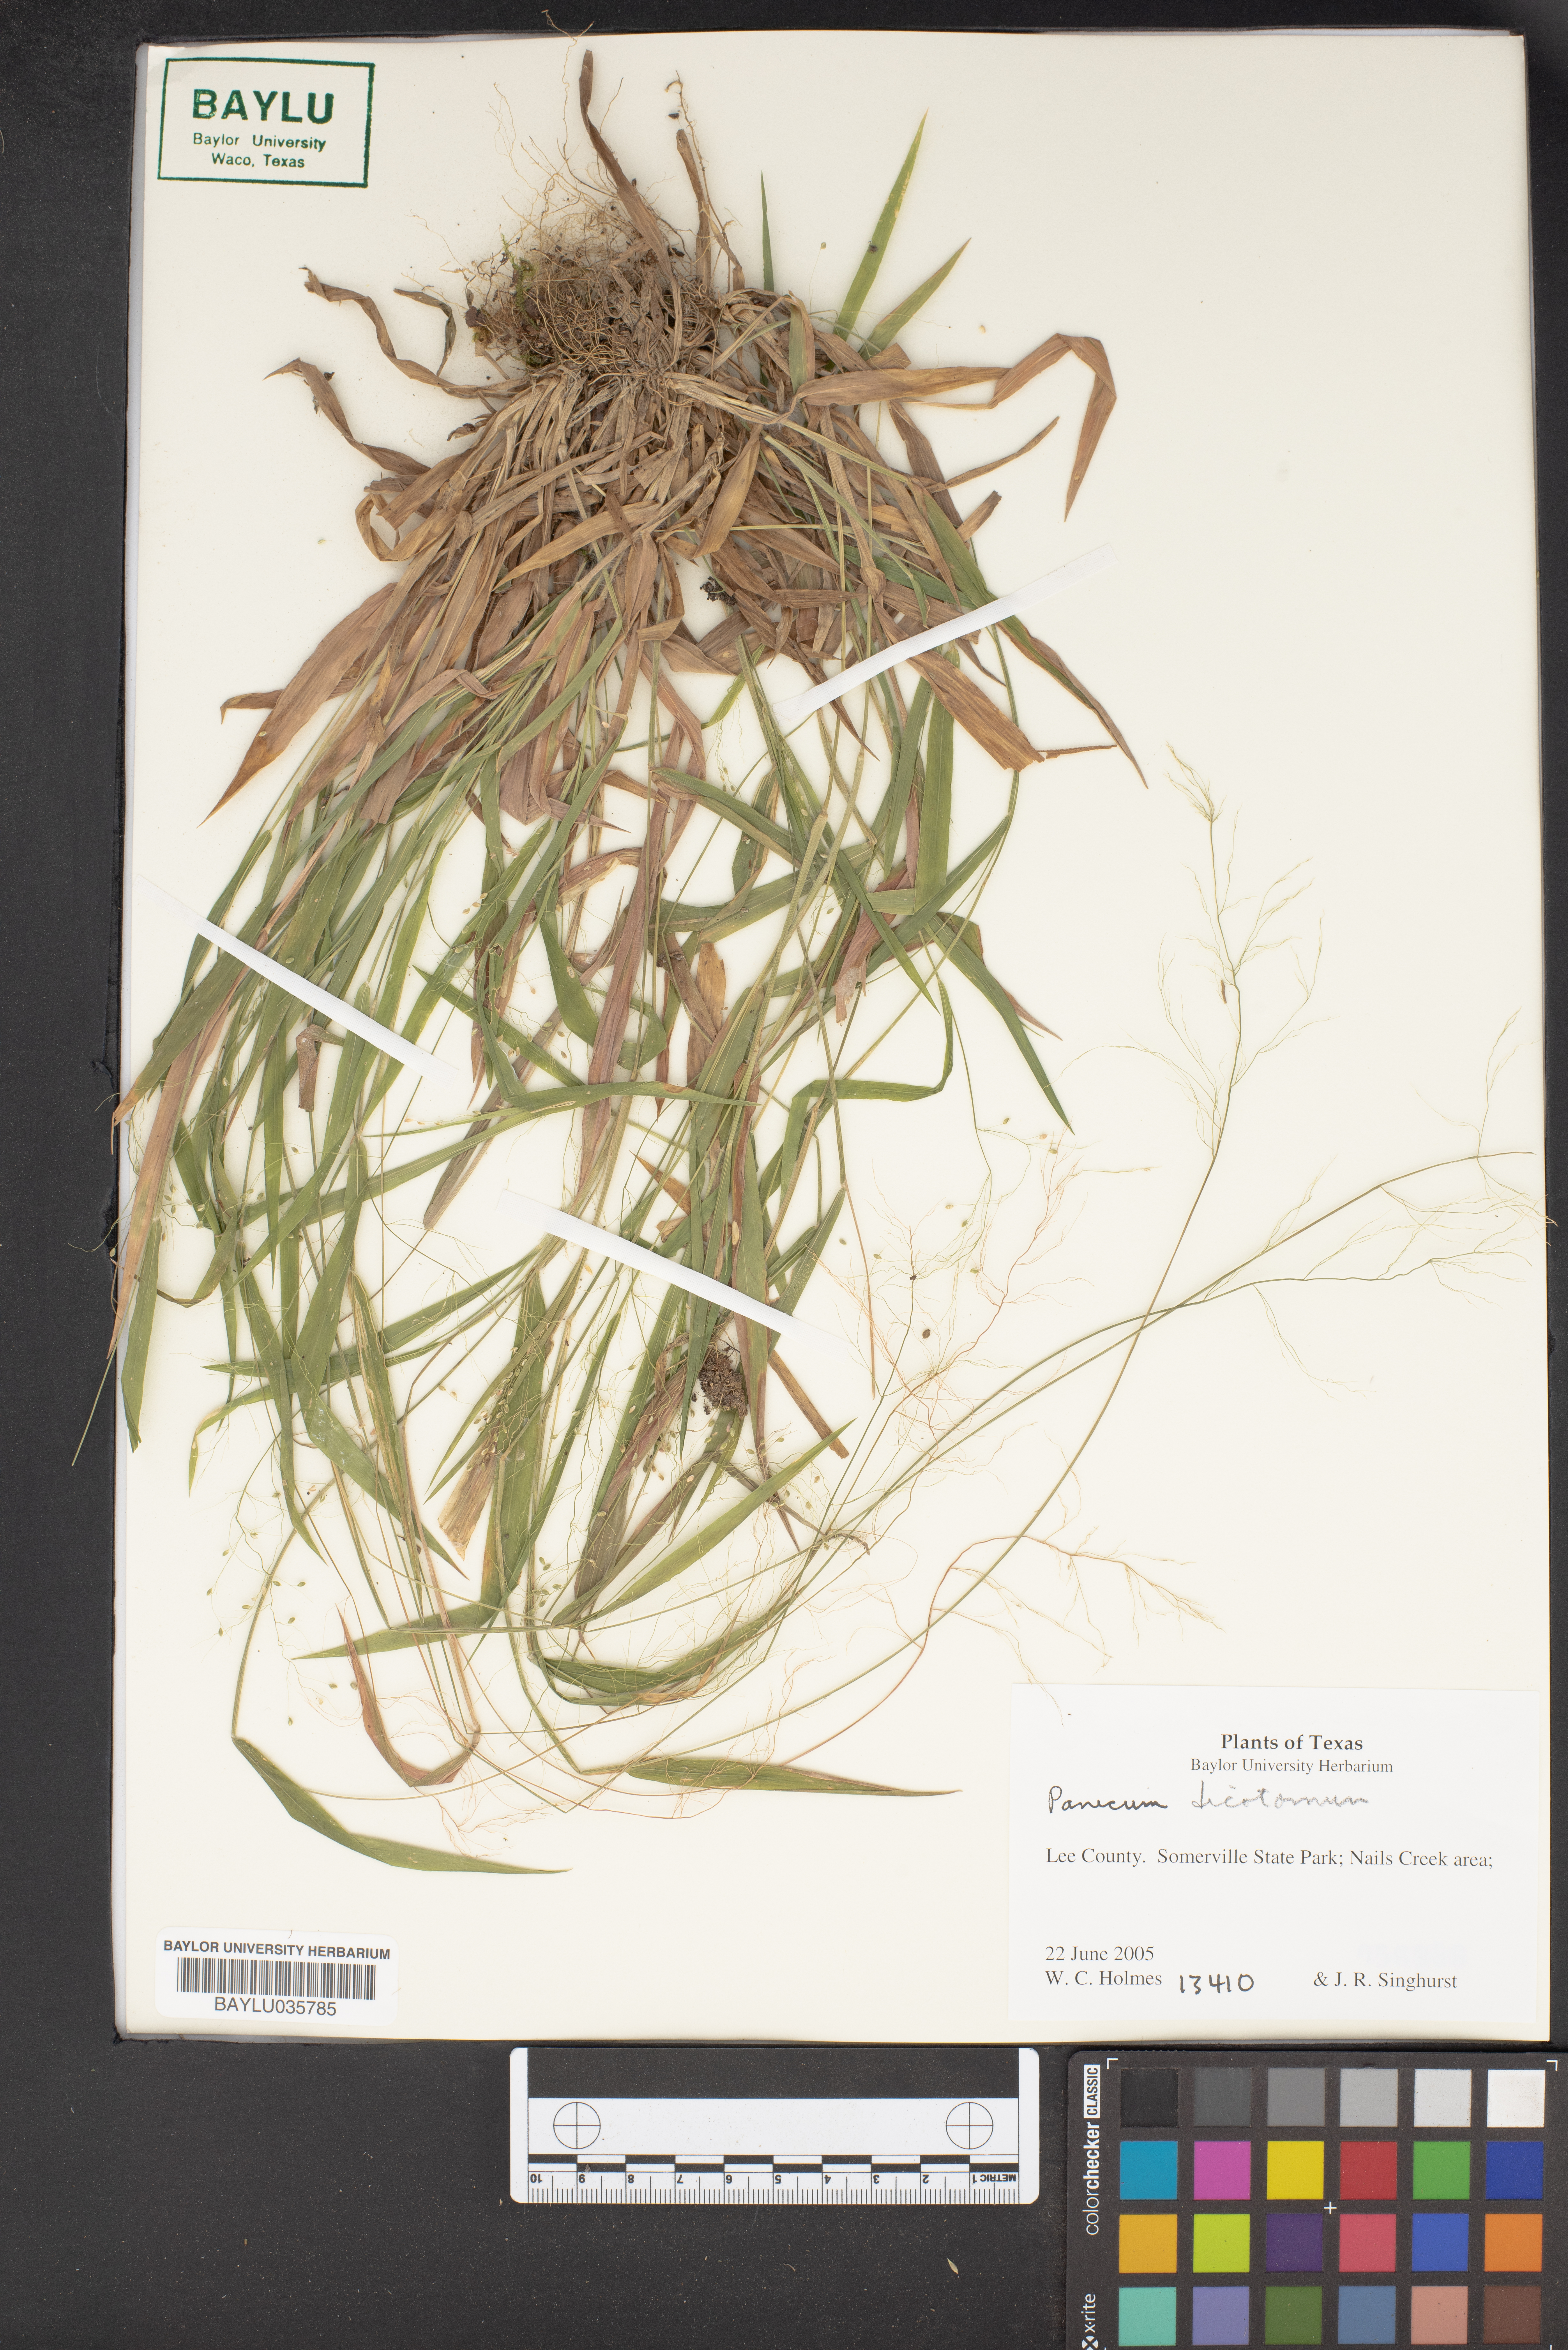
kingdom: Plantae
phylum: Tracheophyta
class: Liliopsida
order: Poales
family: Poaceae
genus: Dichanthelium
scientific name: Dichanthelium dichotomum
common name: Cypress panicgrass
